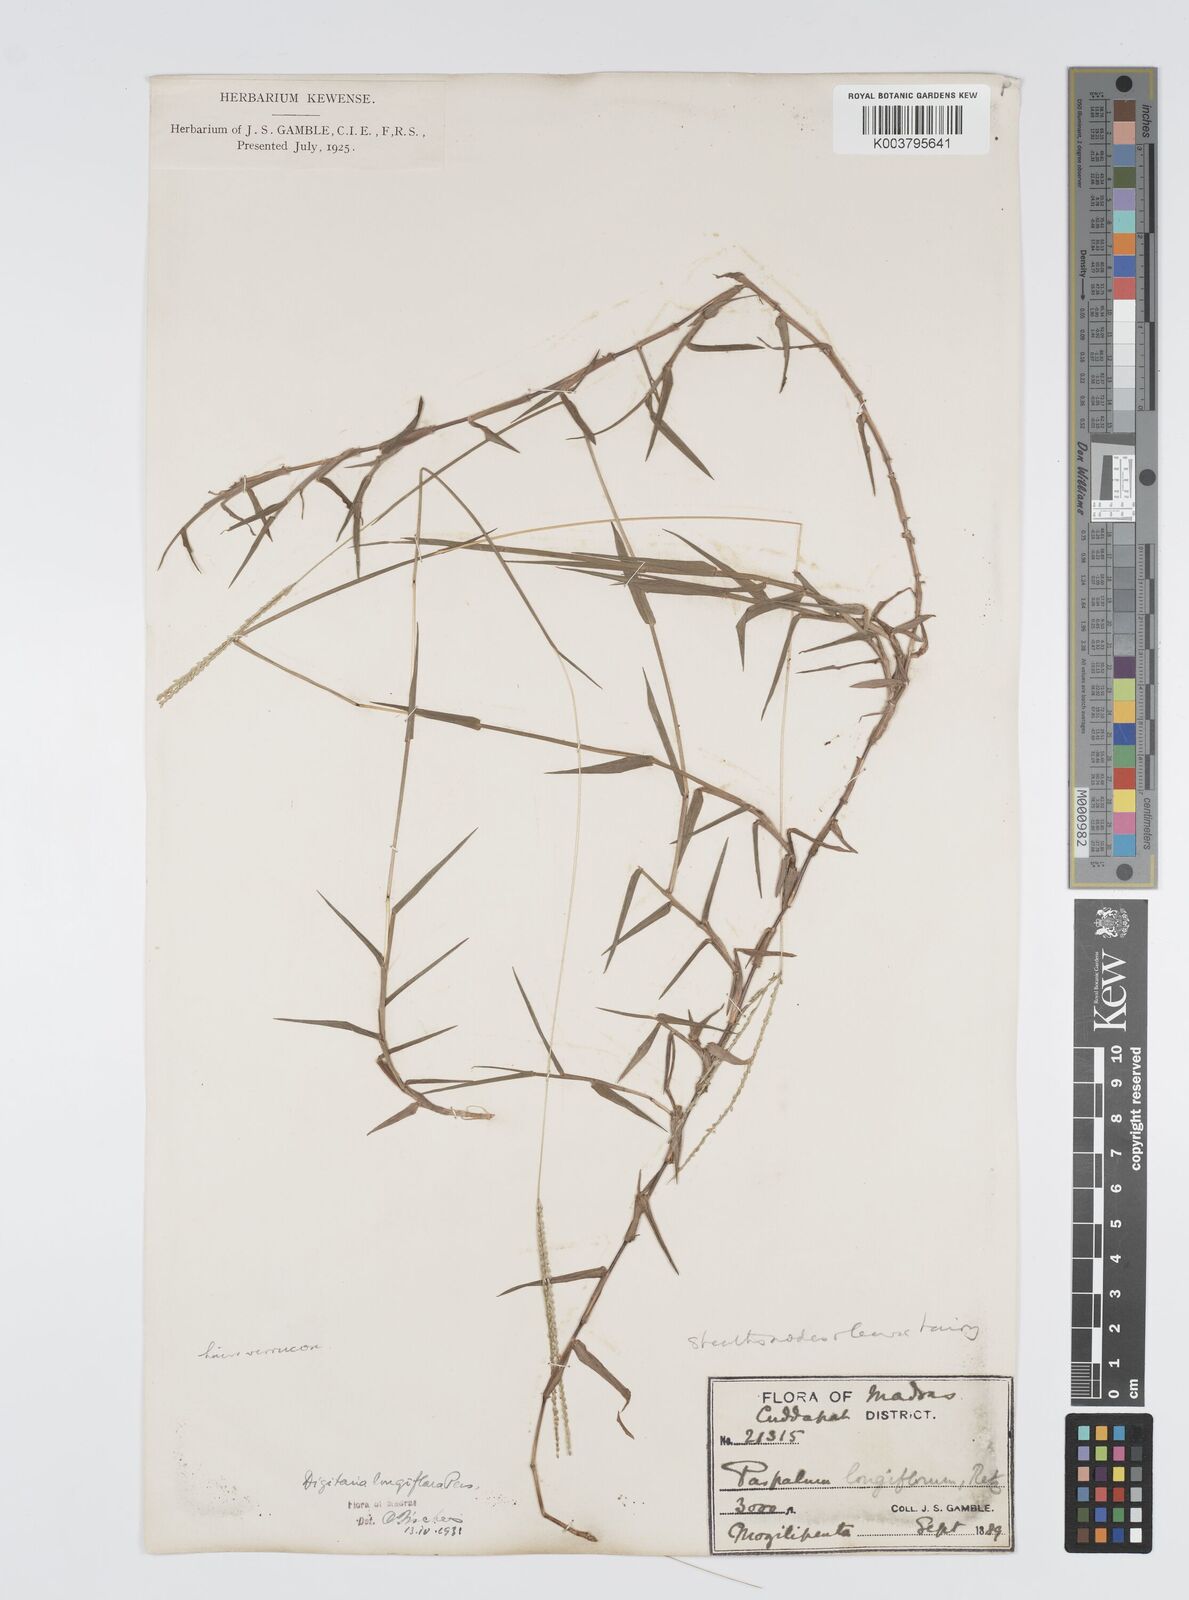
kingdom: Plantae
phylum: Tracheophyta
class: Liliopsida
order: Poales
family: Poaceae
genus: Digitaria
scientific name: Digitaria longiflora
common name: Wire crabgrass
